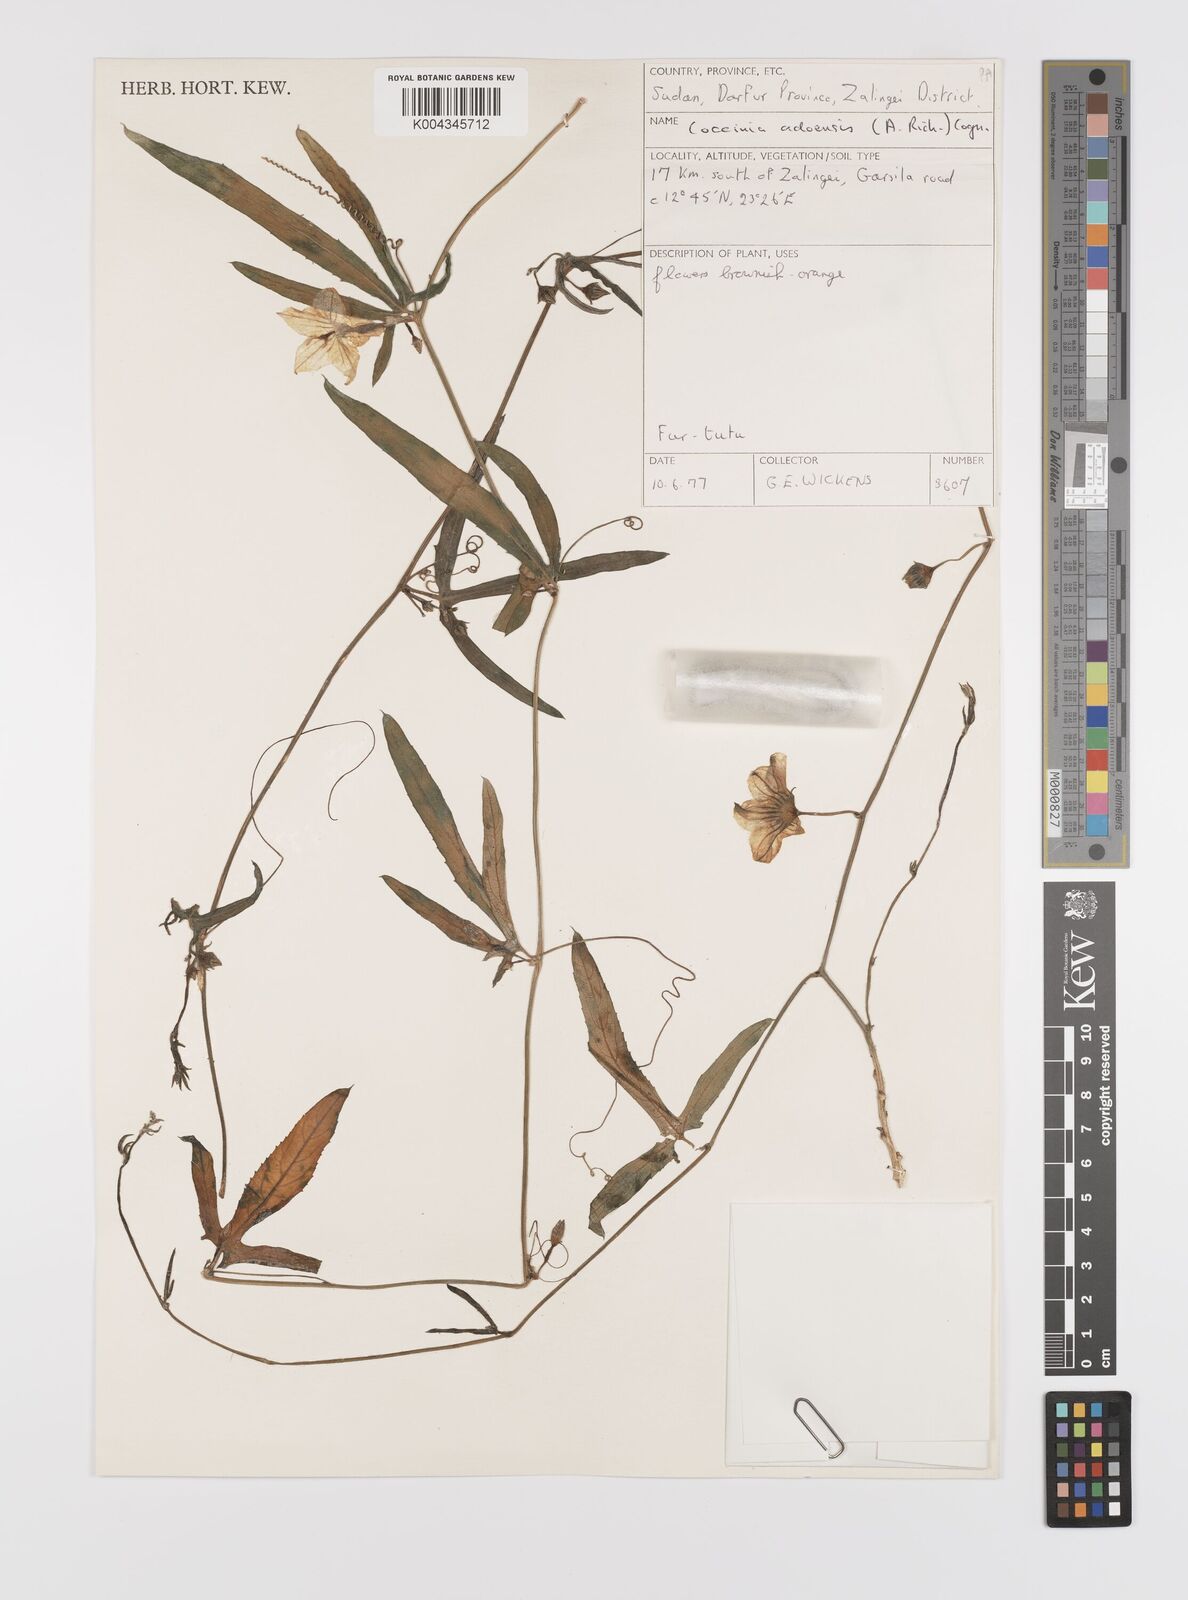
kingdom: Plantae
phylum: Tracheophyta
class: Magnoliopsida
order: Cucurbitales
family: Cucurbitaceae
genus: Coccinia
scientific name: Coccinia adoensis
